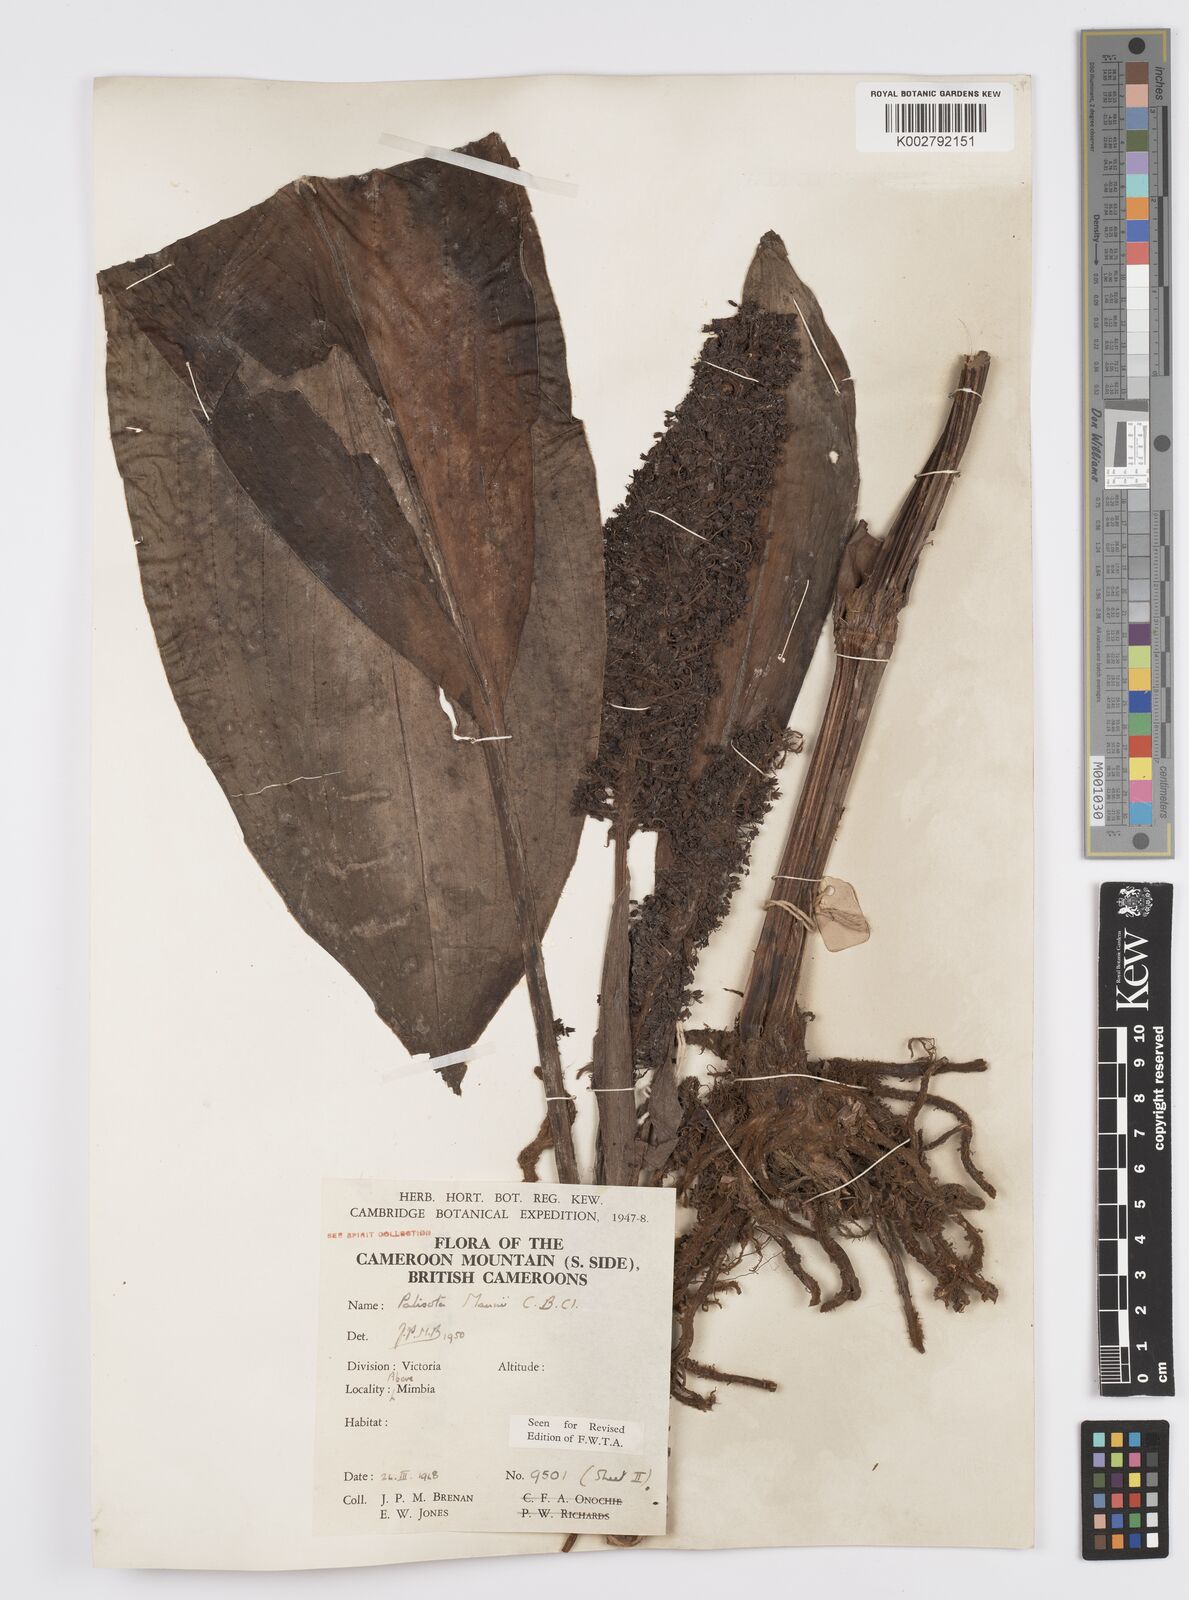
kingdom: Plantae
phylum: Tracheophyta
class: Liliopsida
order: Commelinales
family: Commelinaceae
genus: Palisota
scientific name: Palisota mannii
